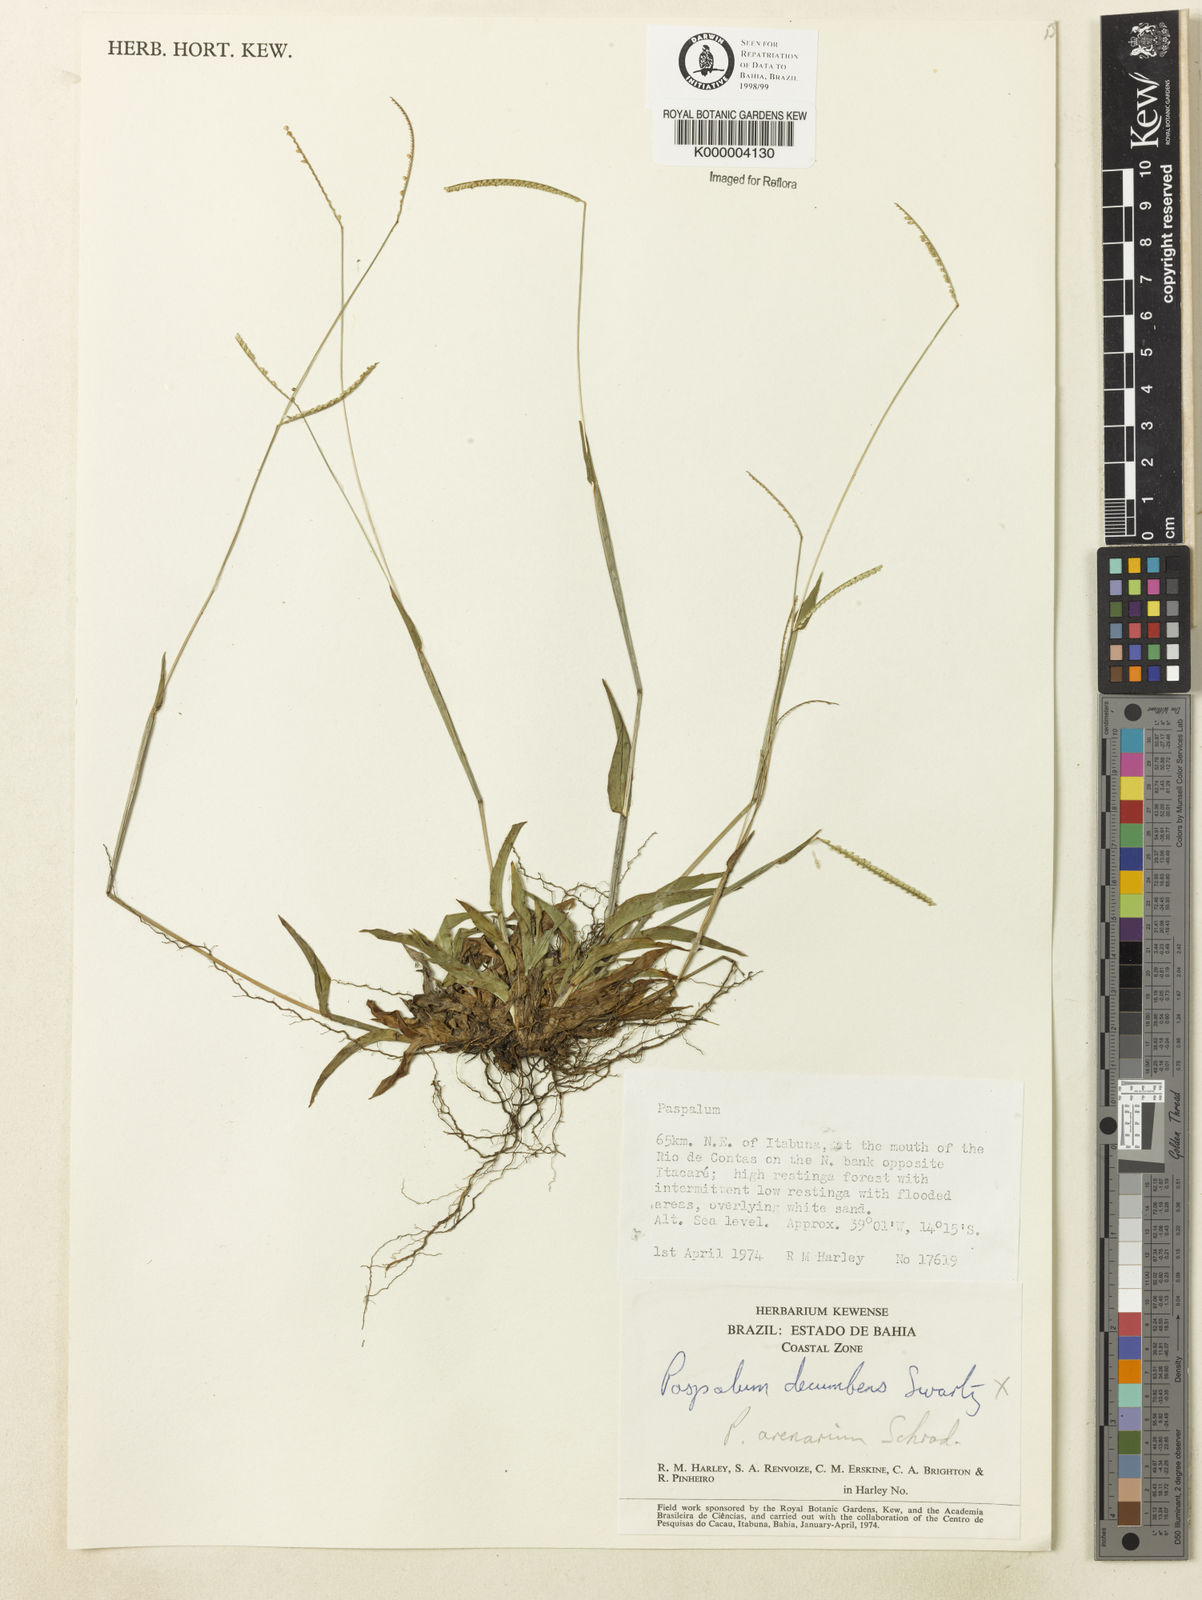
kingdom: Plantae
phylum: Tracheophyta
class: Liliopsida
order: Poales
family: Poaceae
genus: Paspalum
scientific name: Paspalum arenarium
